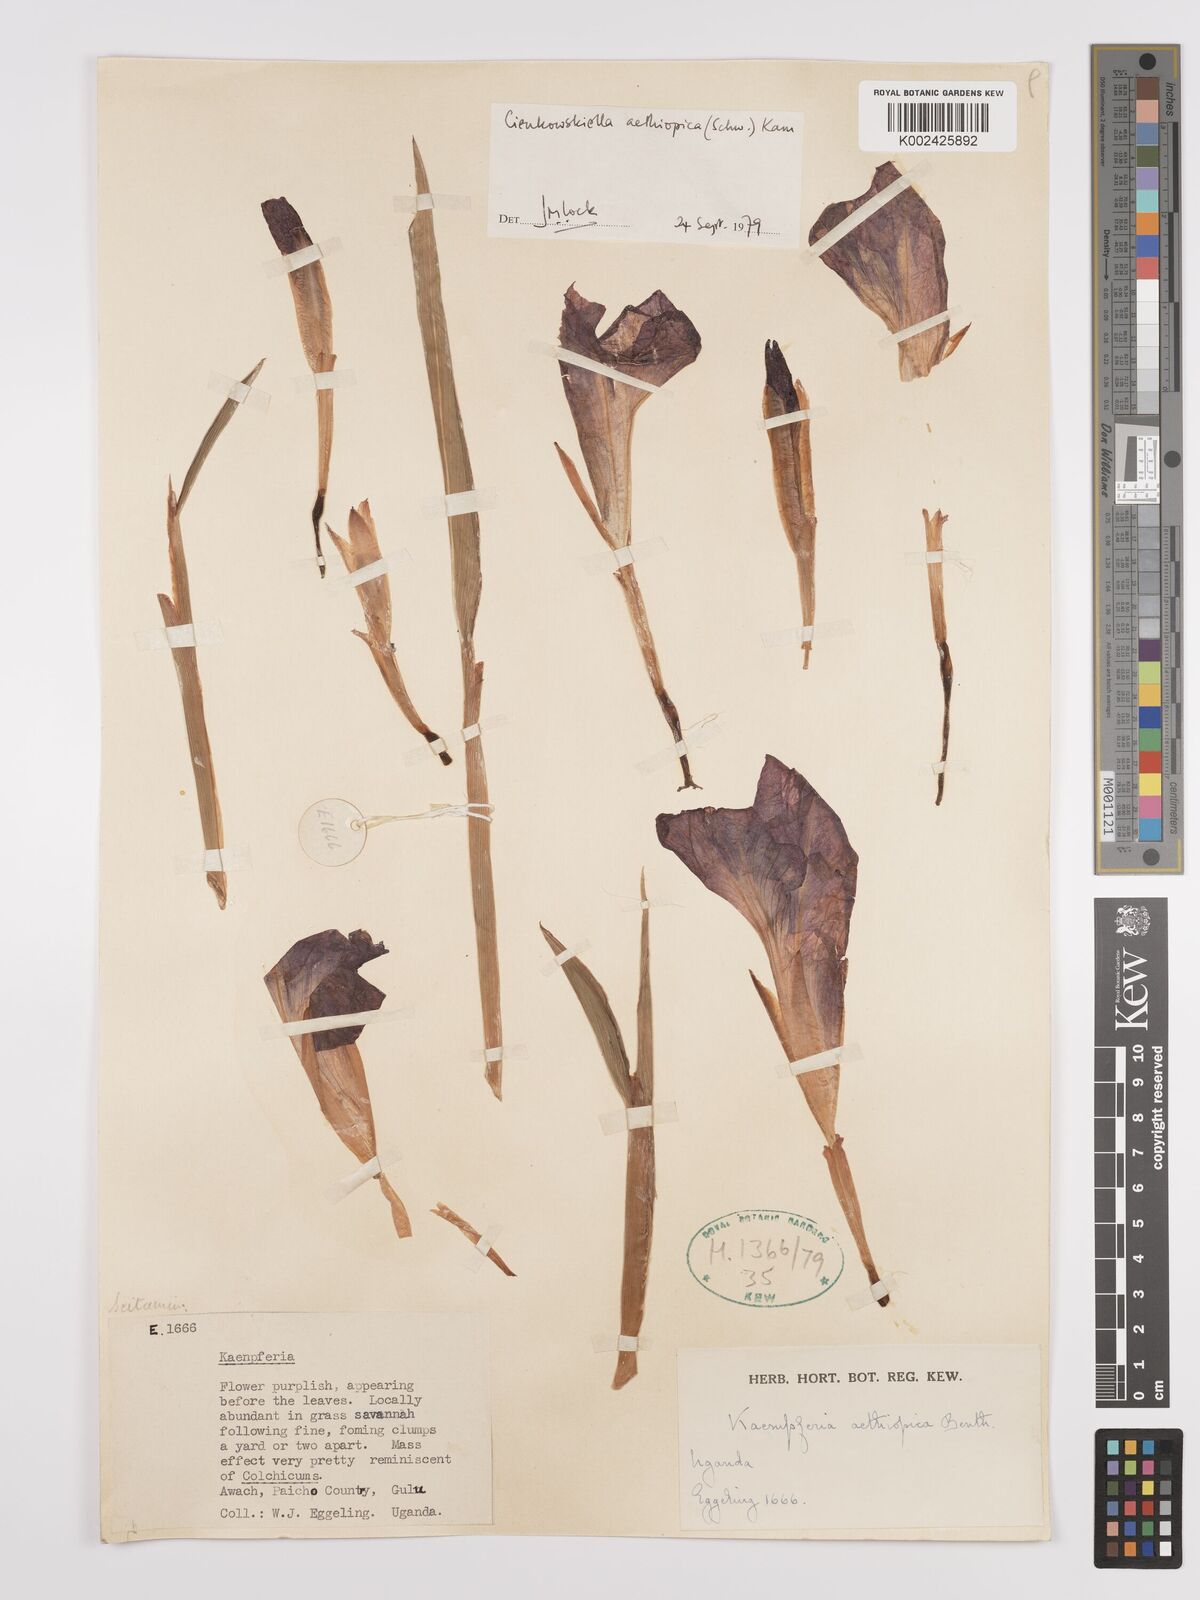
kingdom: Plantae
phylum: Tracheophyta
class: Liliopsida
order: Zingiberales
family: Zingiberaceae
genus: Siphonochilus
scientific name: Siphonochilus aethiopicus
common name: African-ginger
